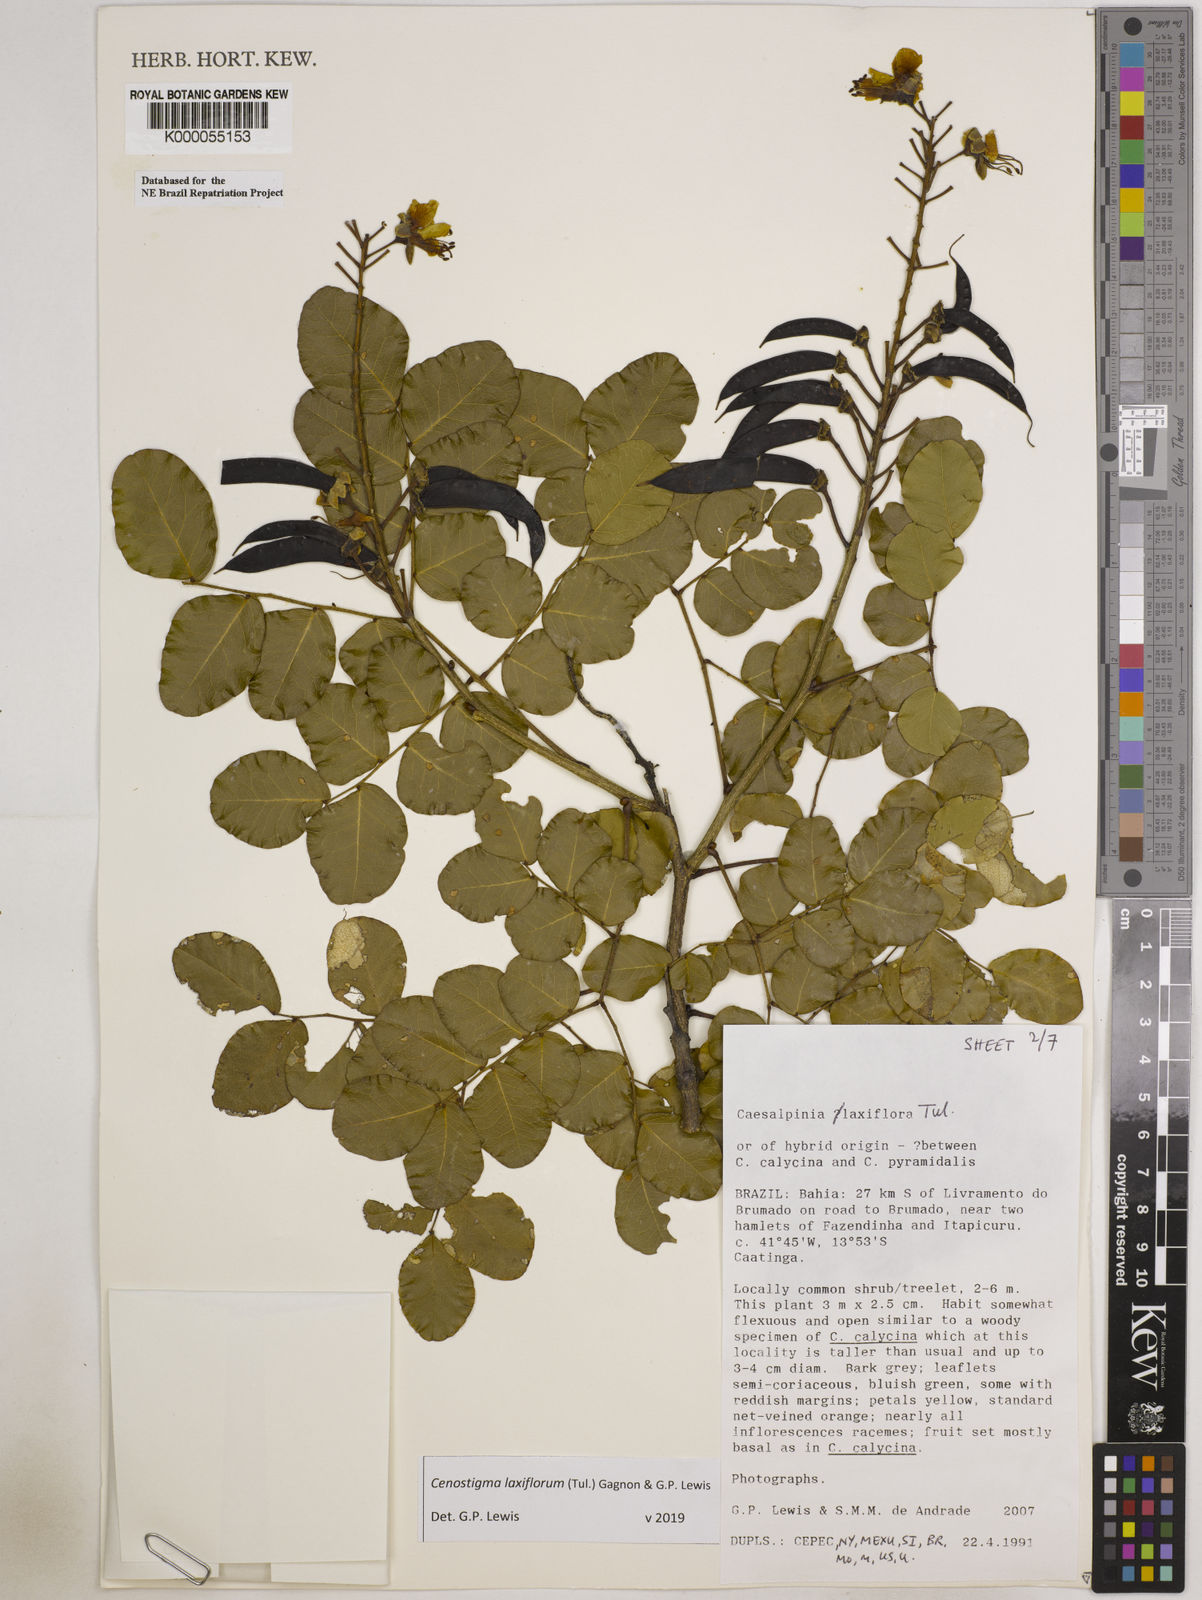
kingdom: Plantae
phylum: Tracheophyta
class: Magnoliopsida
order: Fabales
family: Fabaceae
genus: Cenostigma
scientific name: Cenostigma laxiflorum
